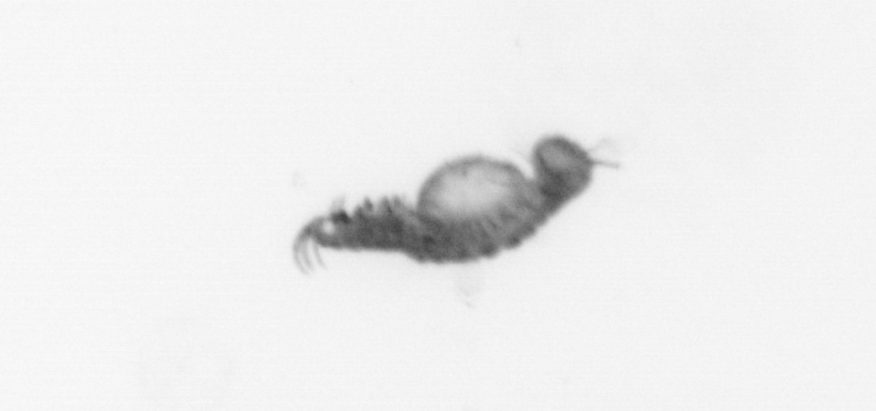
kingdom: Animalia
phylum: Annelida
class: Polychaeta
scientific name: Polychaeta
